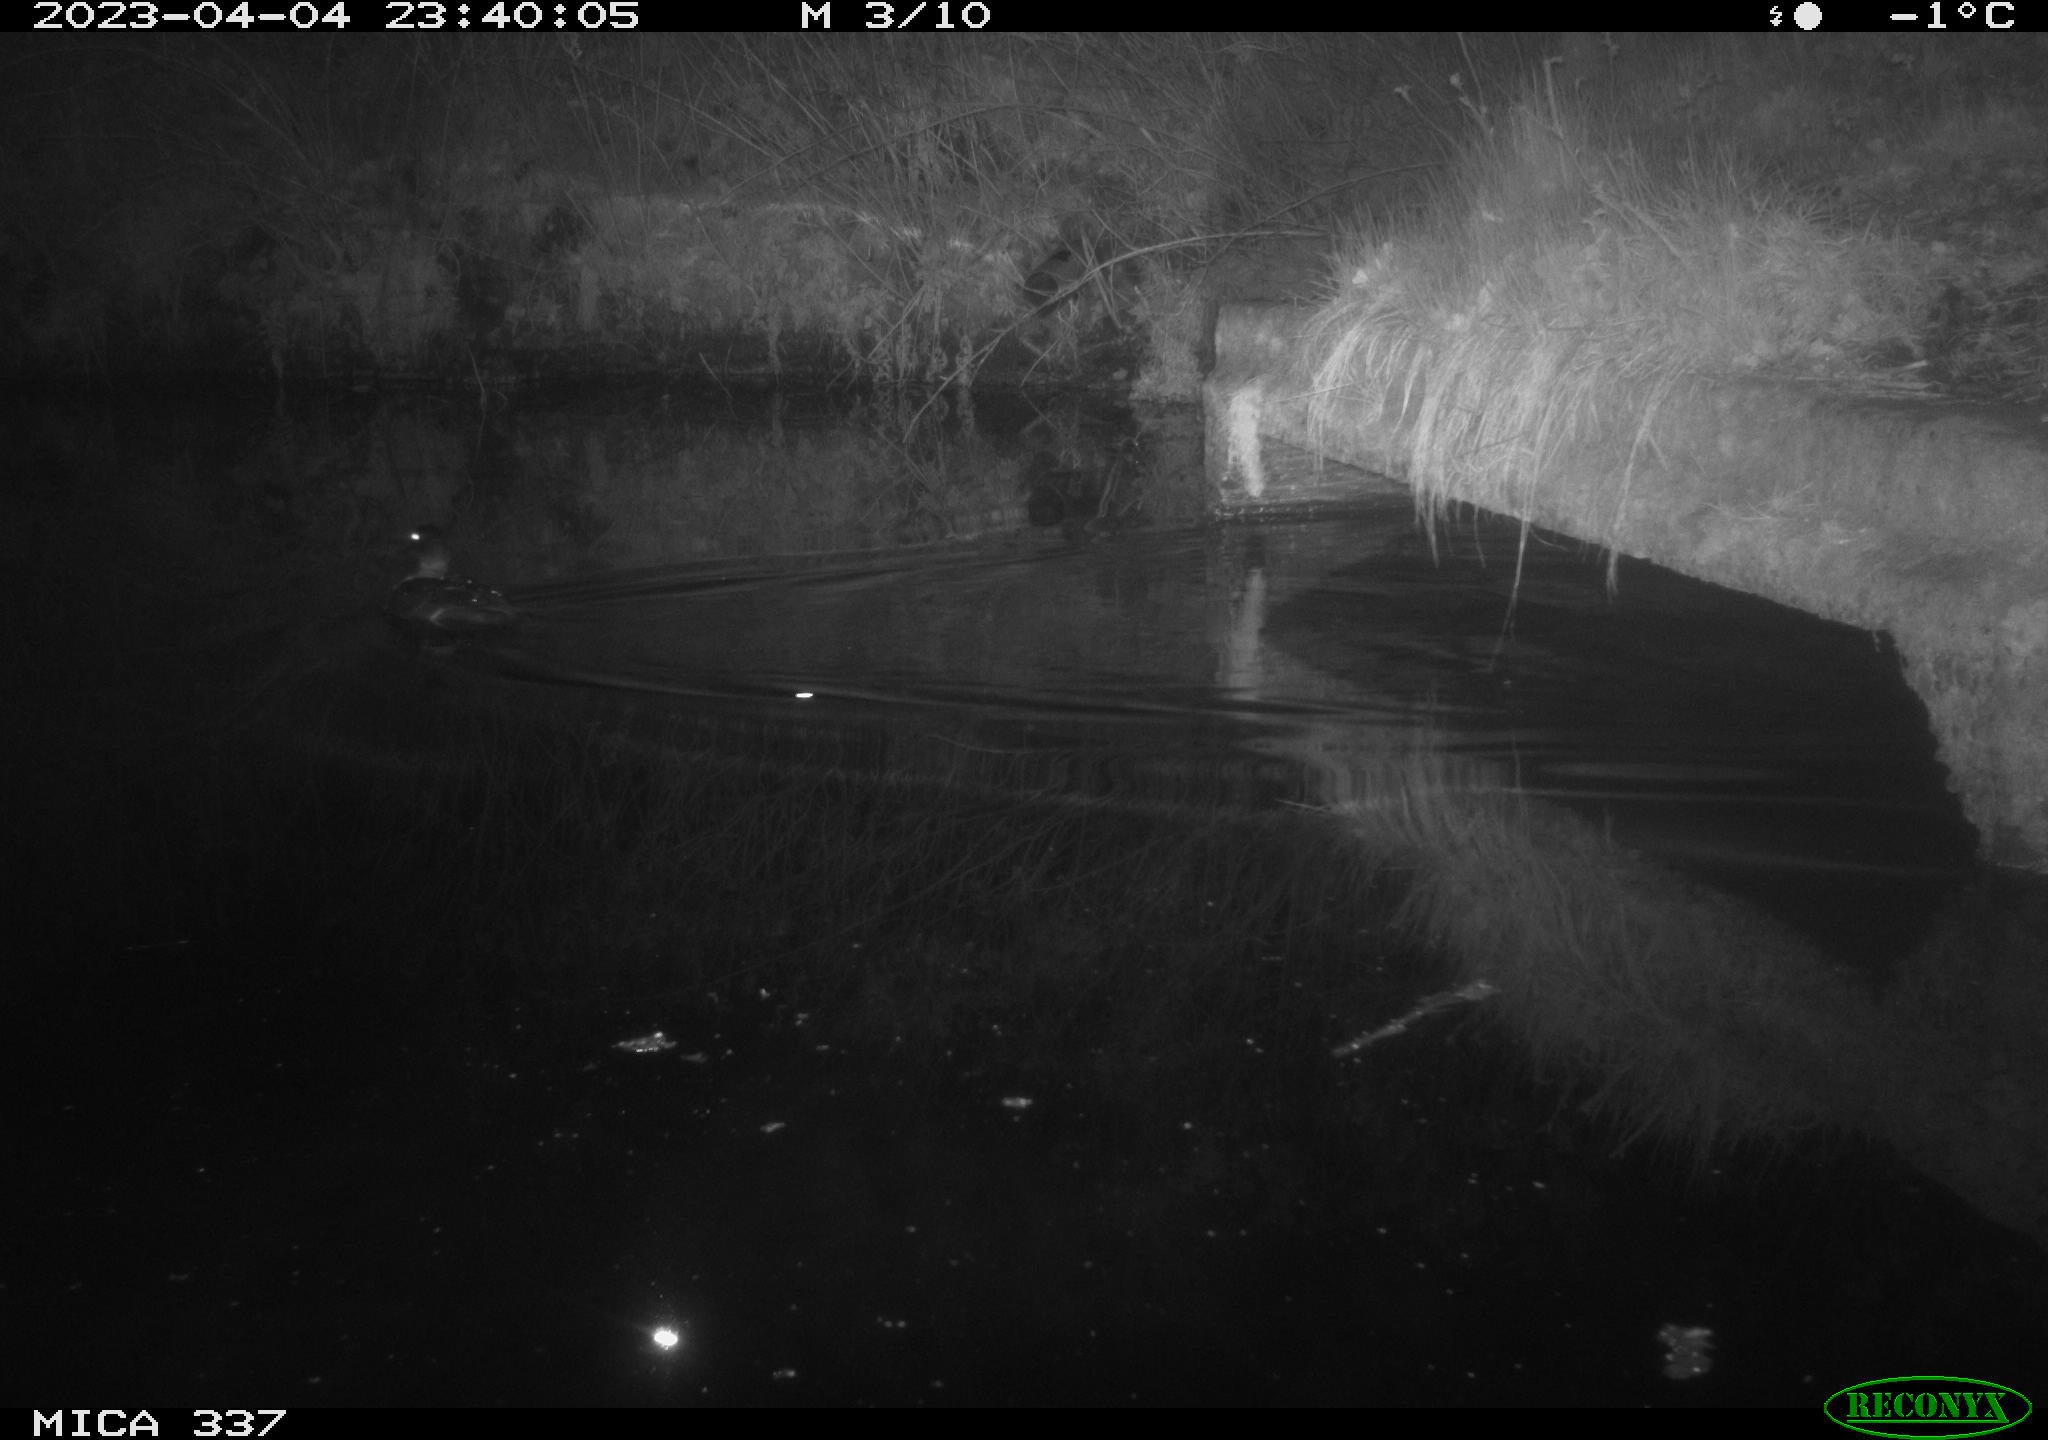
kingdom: Animalia
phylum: Chordata
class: Aves
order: Anseriformes
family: Anatidae
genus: Anas
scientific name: Anas
